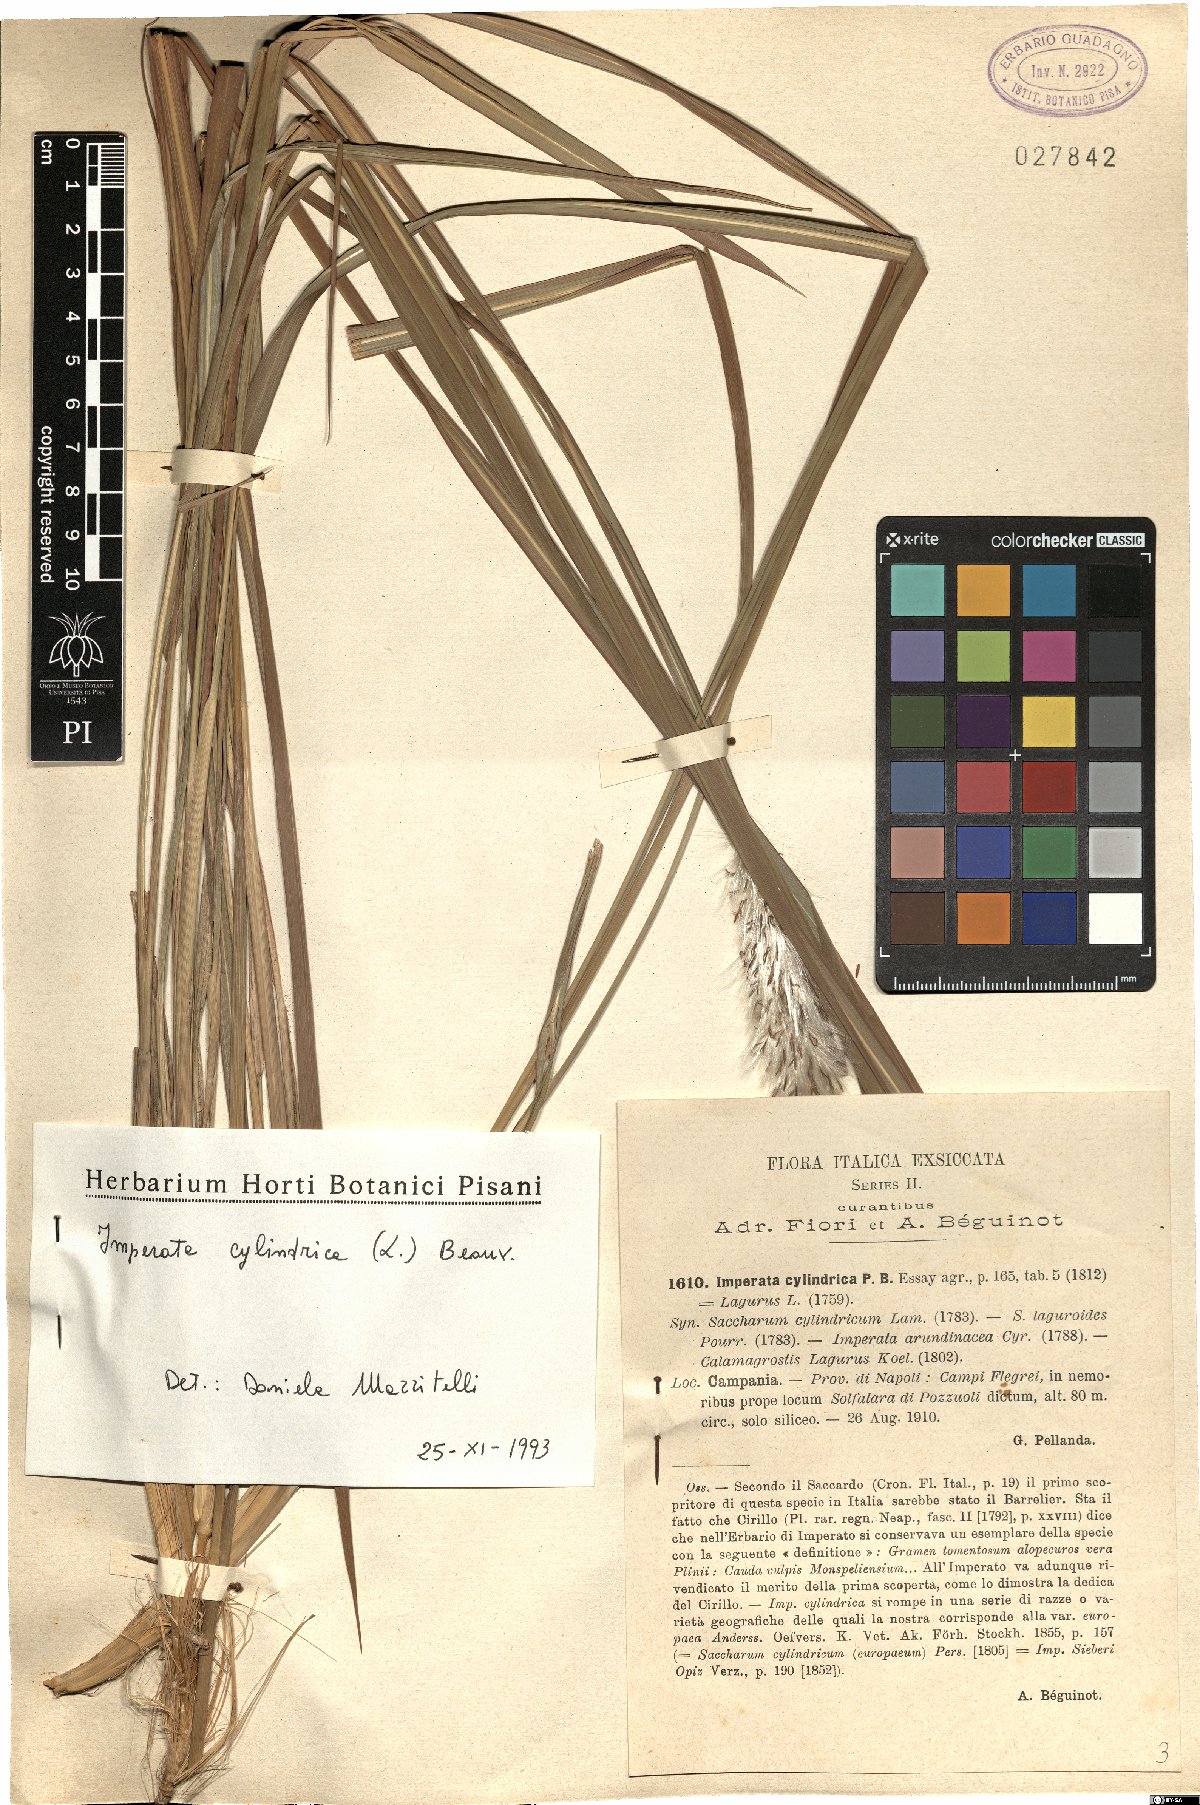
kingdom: Plantae
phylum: Tracheophyta
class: Liliopsida
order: Poales
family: Poaceae
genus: Imperata
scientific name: Imperata cylindrica
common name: Cogongrass
